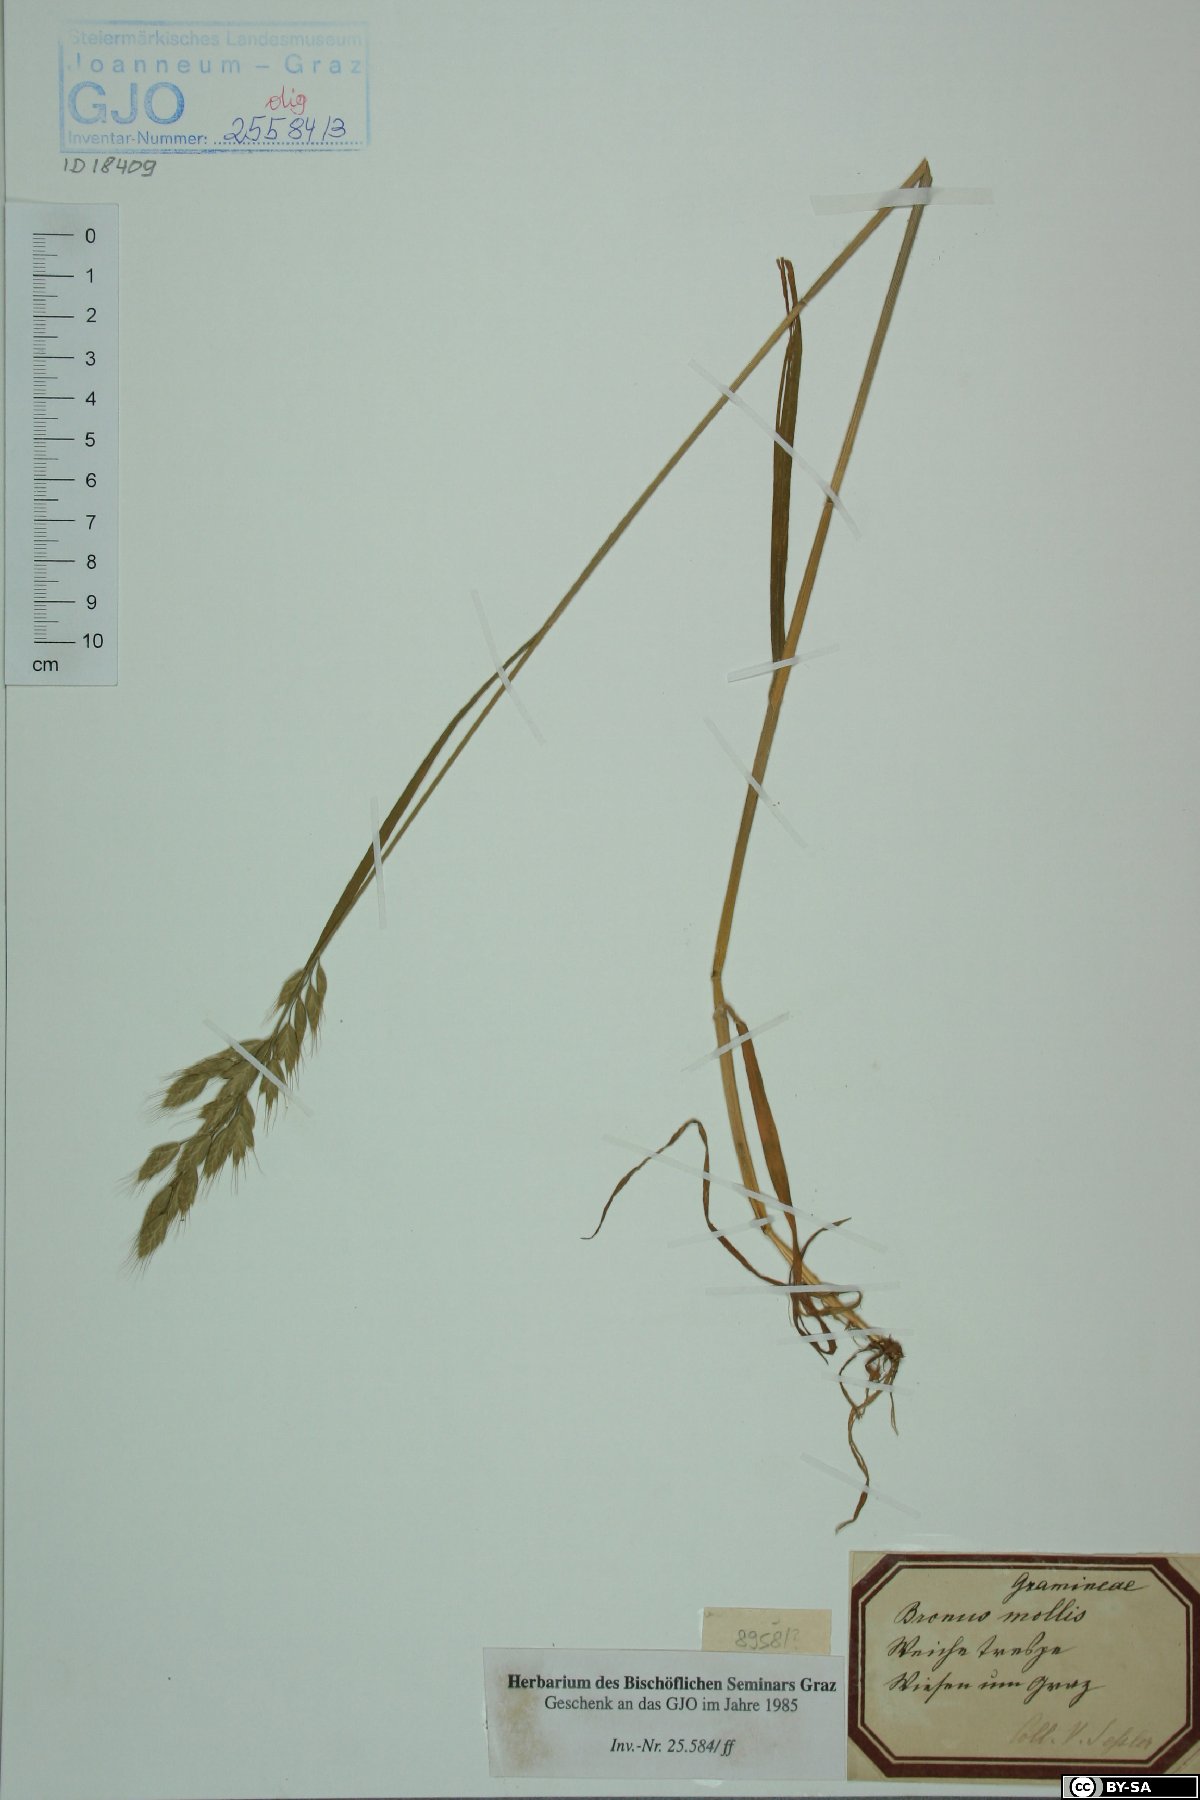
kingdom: Plantae
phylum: Tracheophyta
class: Liliopsida
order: Poales
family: Poaceae
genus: Bromus
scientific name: Bromus hordeaceus
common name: Soft brome
